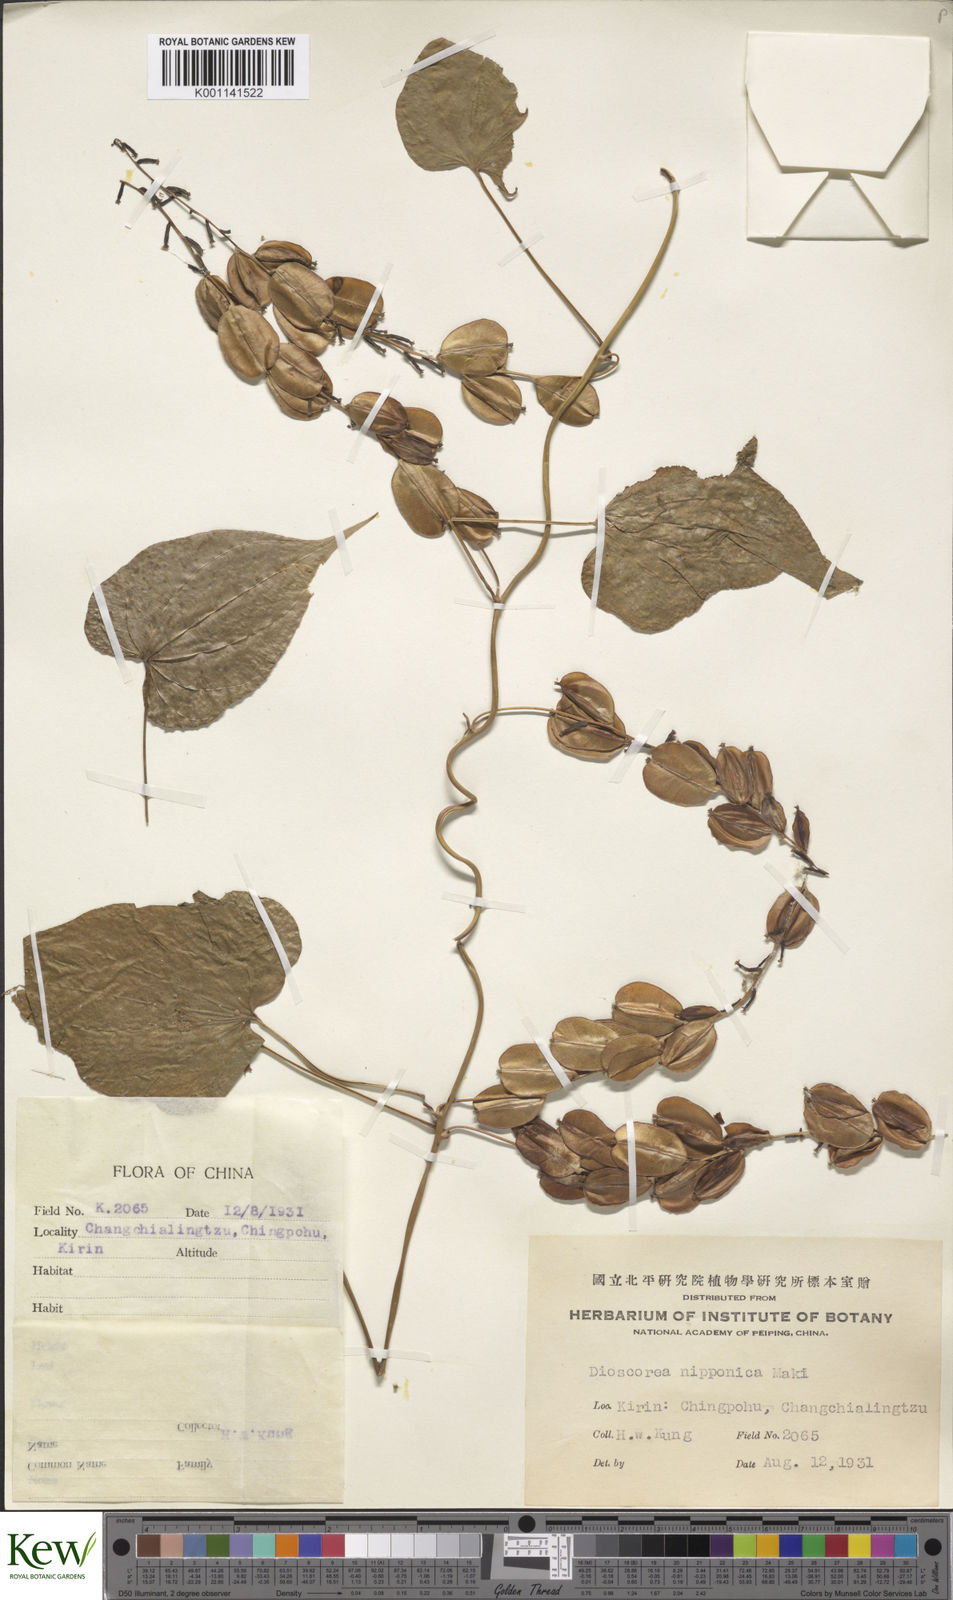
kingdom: Plantae
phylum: Tracheophyta
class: Liliopsida
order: Dioscoreales
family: Dioscoreaceae
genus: Dioscorea
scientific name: Dioscorea nipponica
